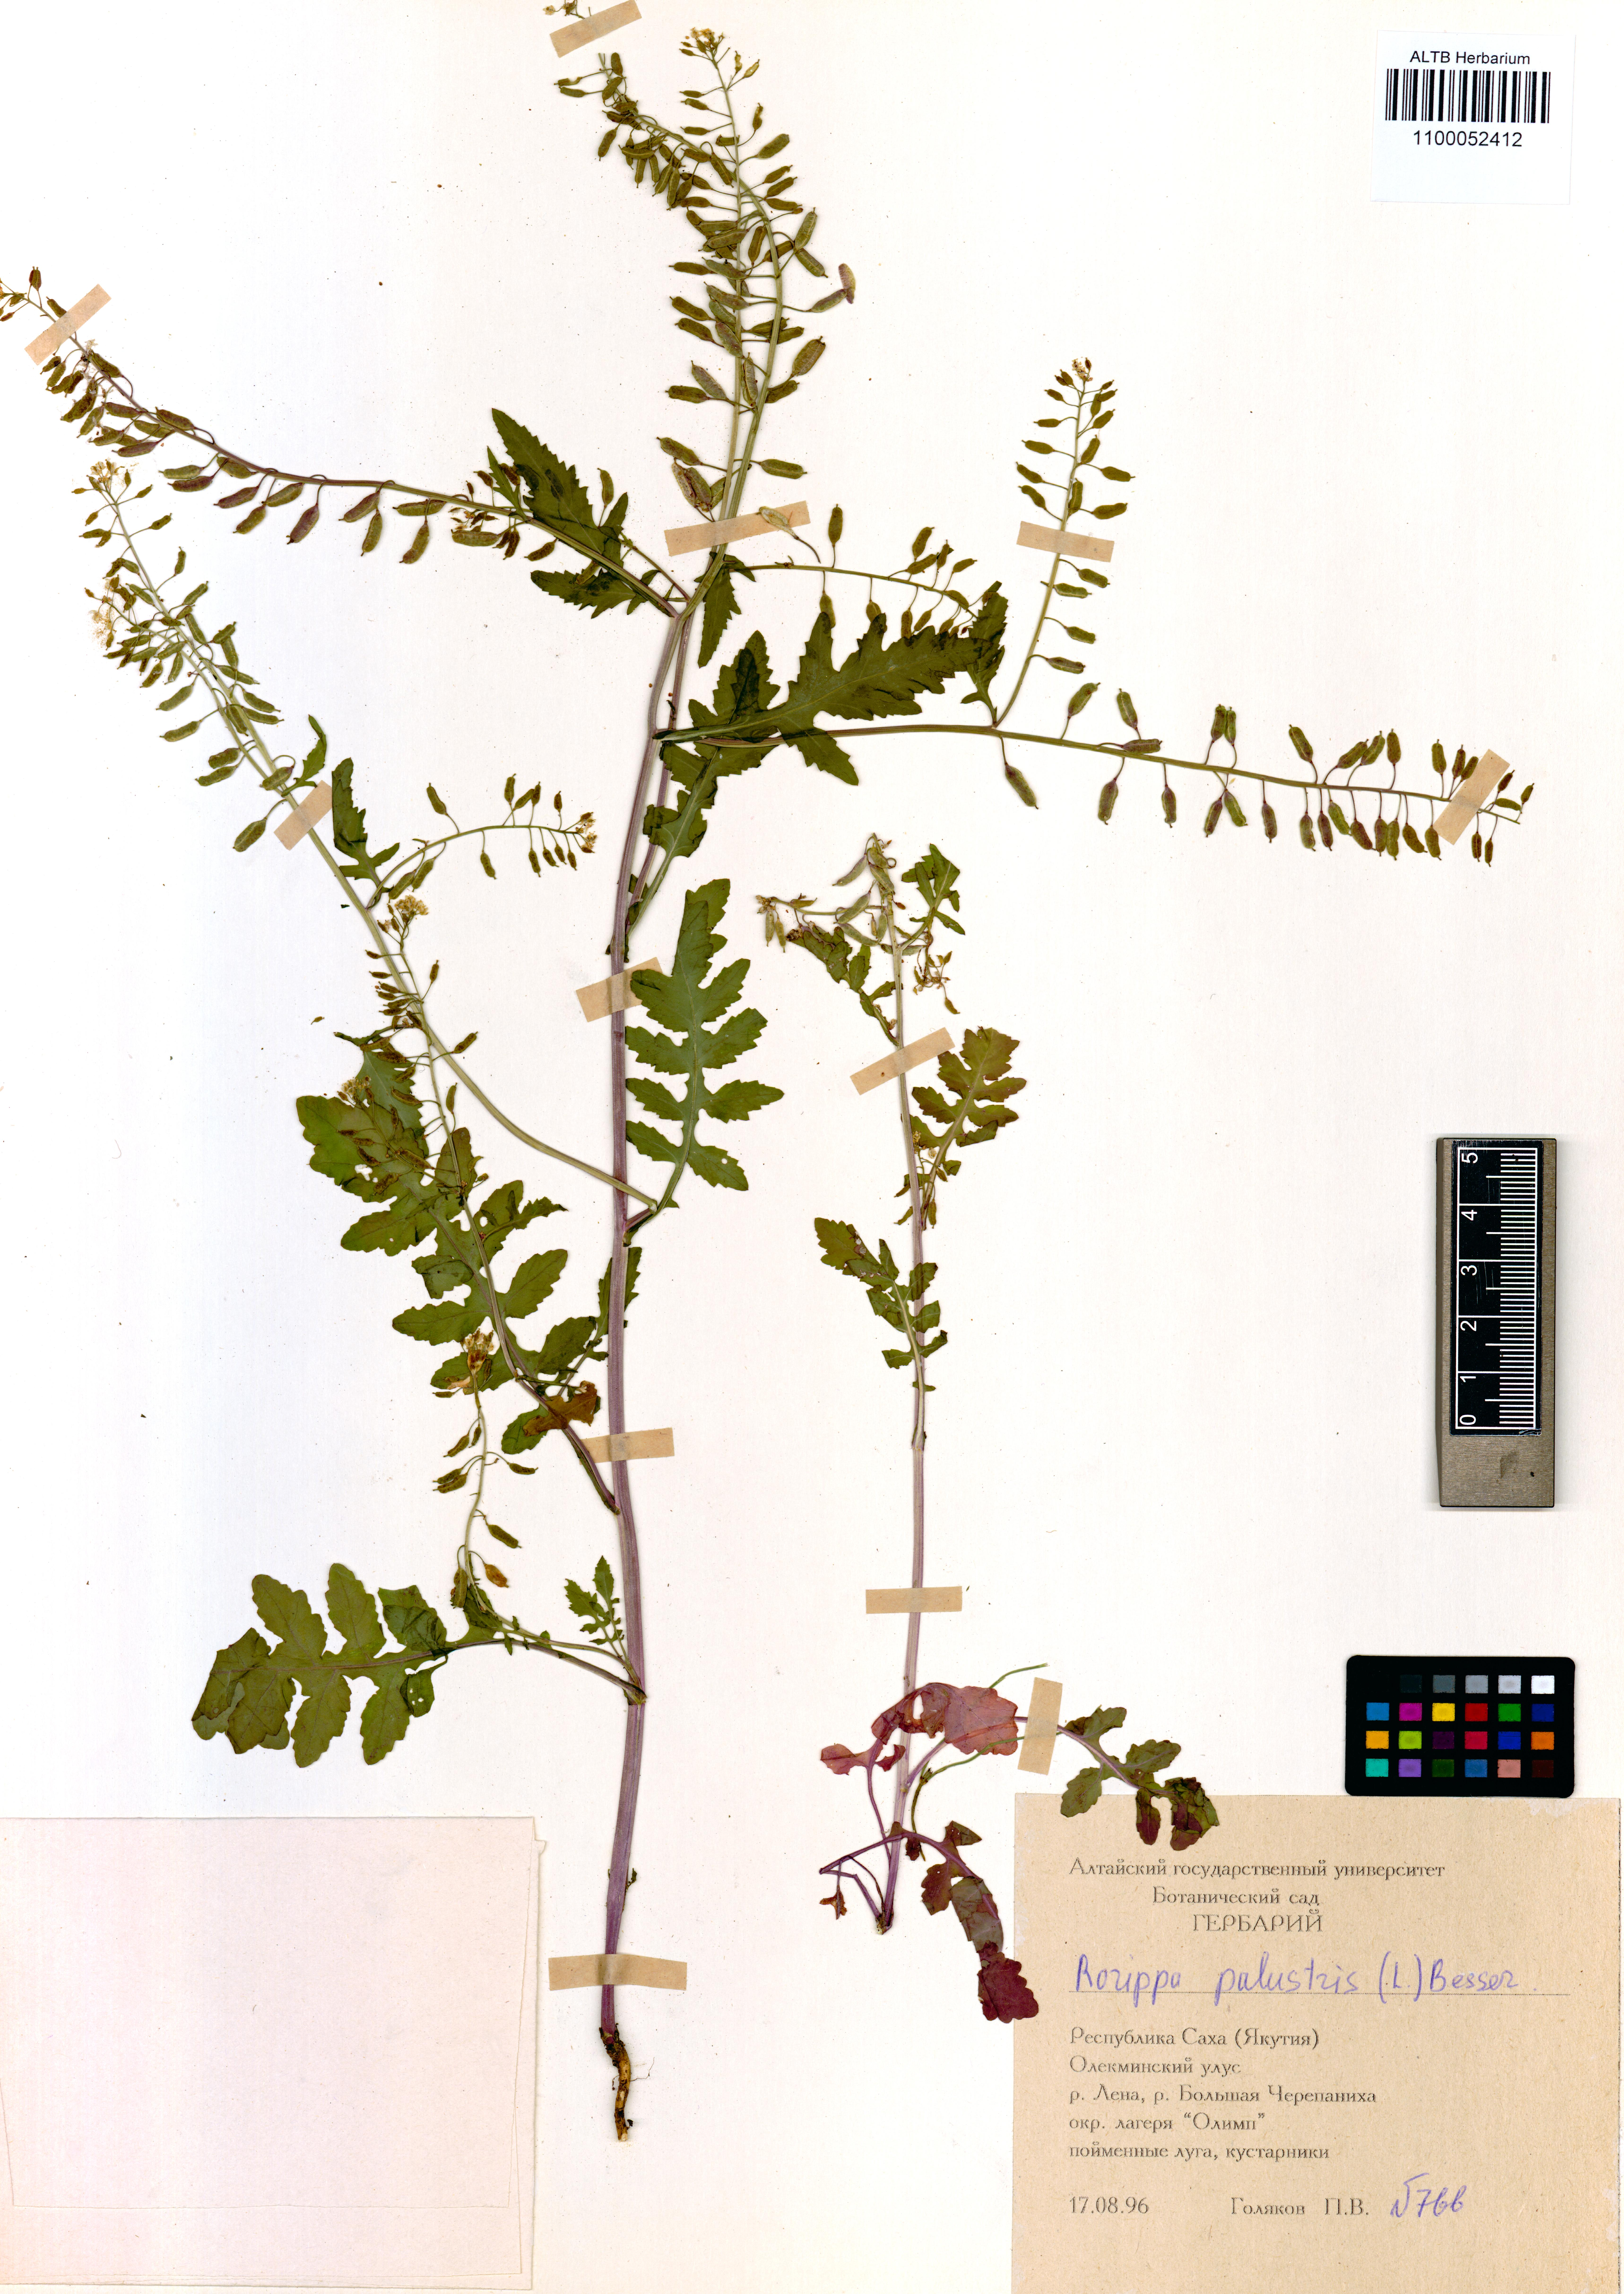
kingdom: Plantae
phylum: Tracheophyta
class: Magnoliopsida
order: Brassicales
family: Brassicaceae
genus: Rorippa
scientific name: Rorippa palustris
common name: Marsh yellow-cress
